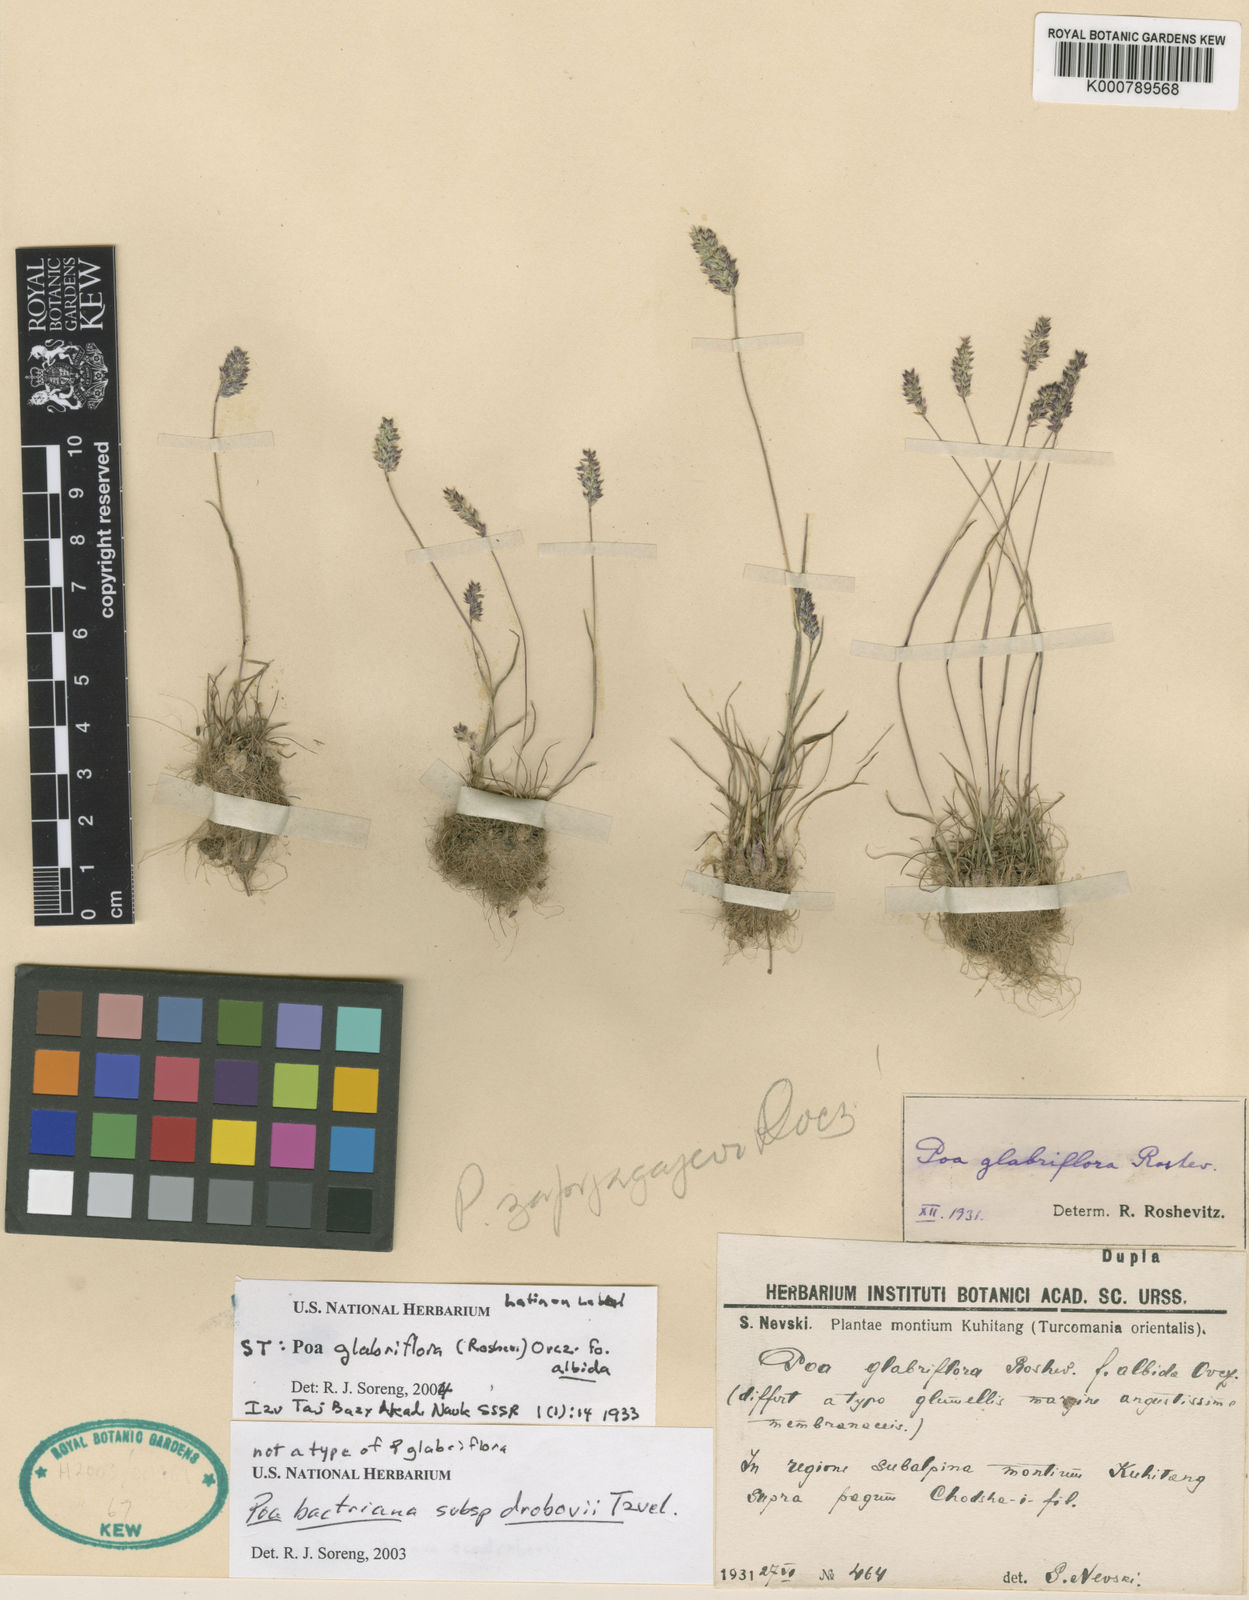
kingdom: Plantae
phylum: Tracheophyta
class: Liliopsida
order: Poales
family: Poaceae
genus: Poa
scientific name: Poa bactriana
